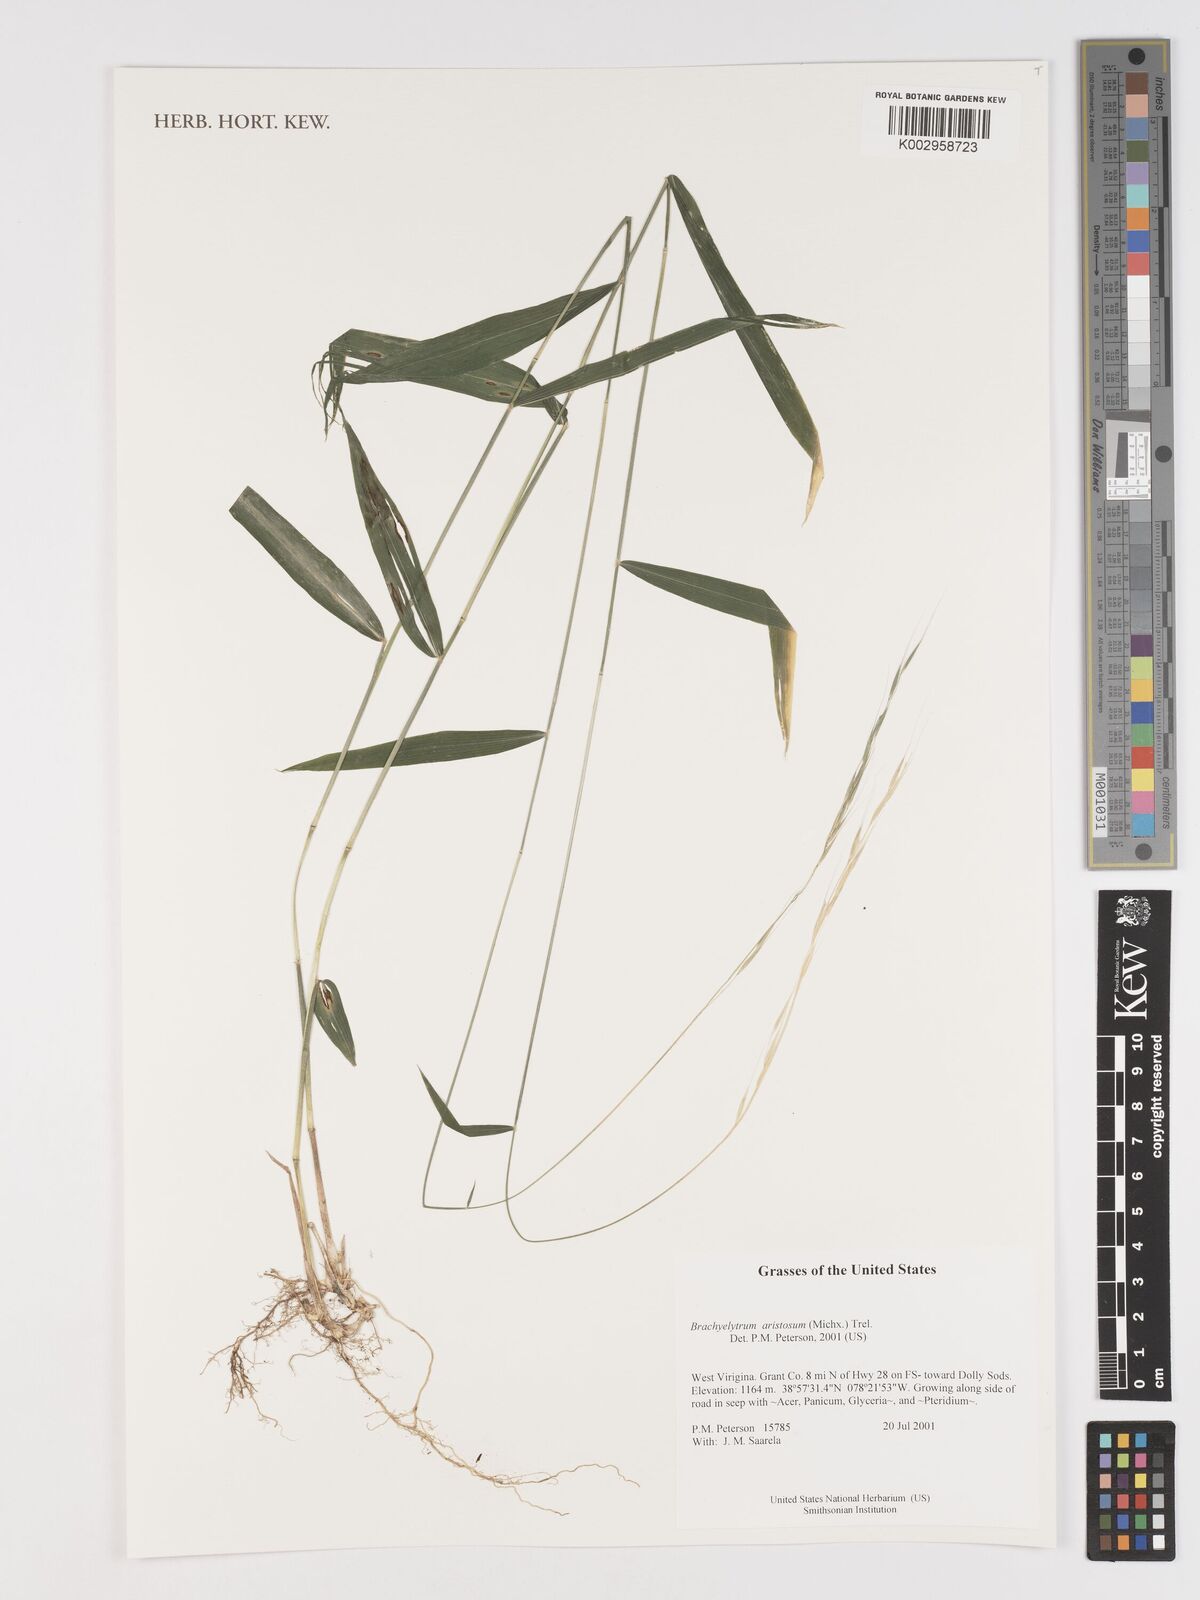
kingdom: Plantae
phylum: Tracheophyta
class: Liliopsida
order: Poales
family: Poaceae
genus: Brachyelytrum
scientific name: Brachyelytrum aristosum
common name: Northern shorthusk
